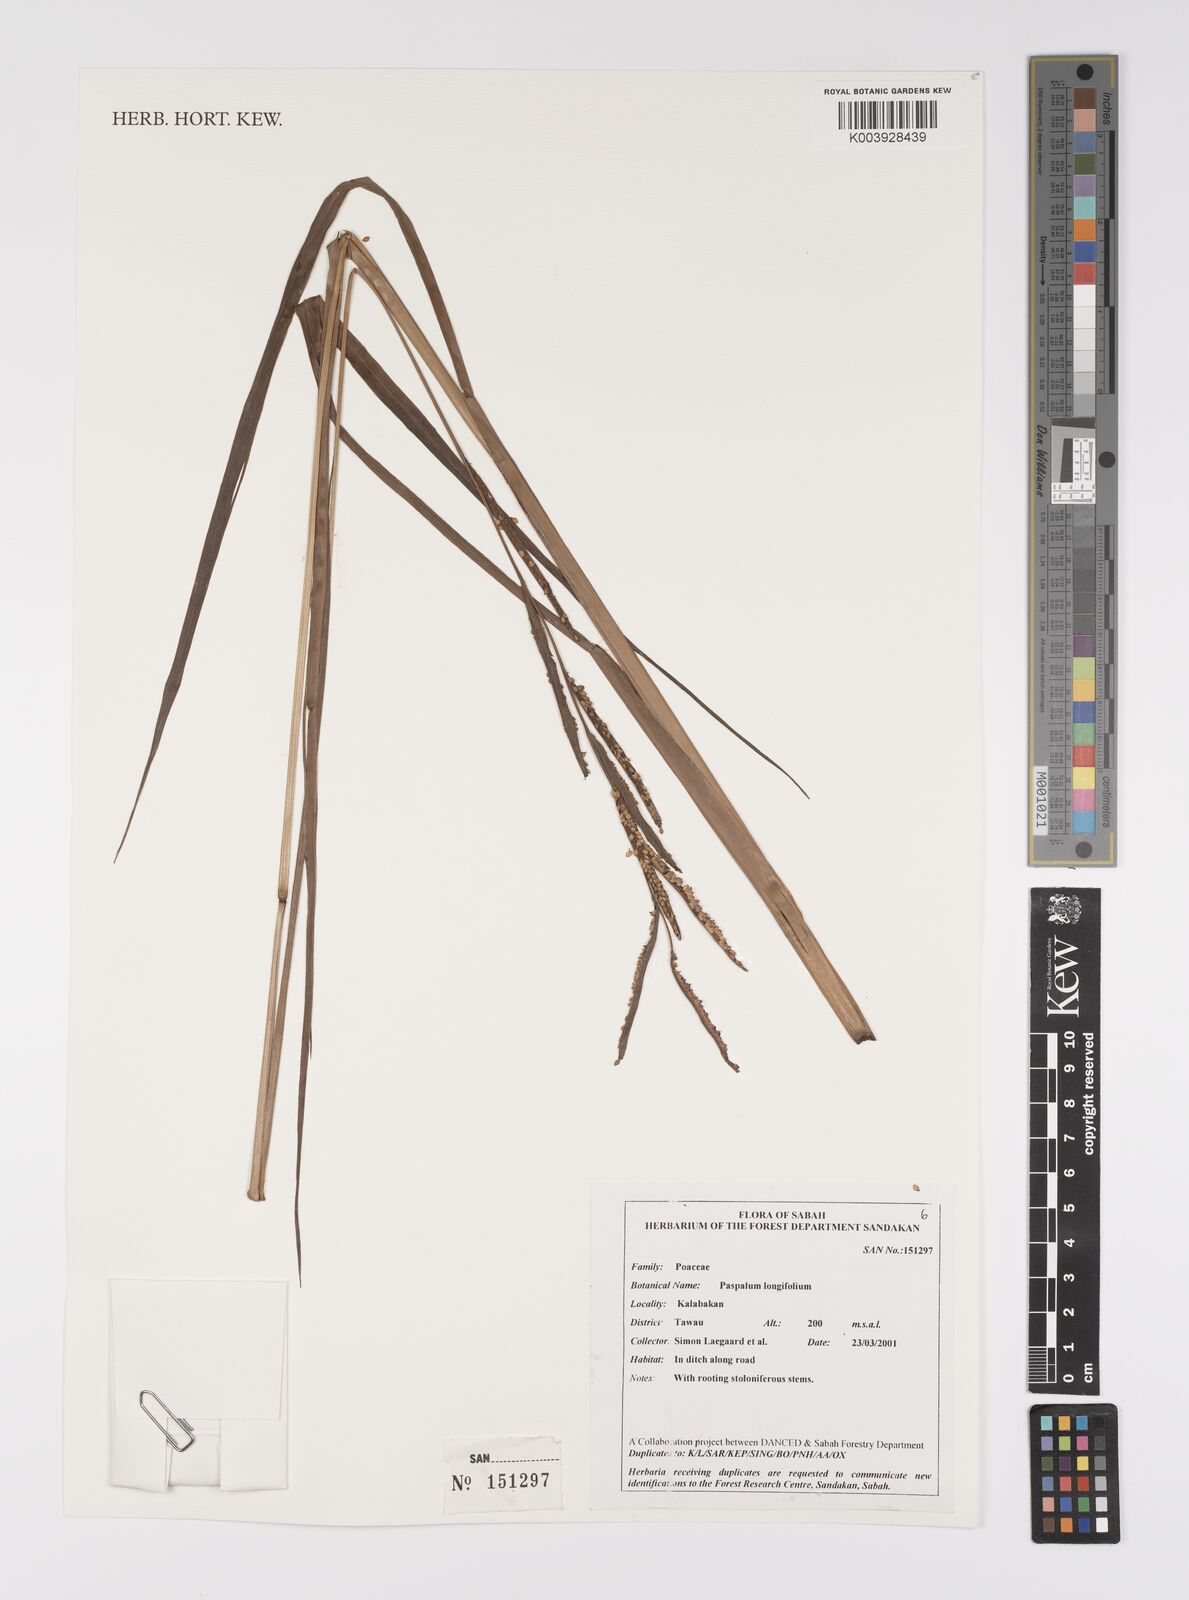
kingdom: Plantae
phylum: Tracheophyta
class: Liliopsida
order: Poales
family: Poaceae
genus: Paspalum
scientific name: Paspalum sumatrense
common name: Long-leaved paspalum
